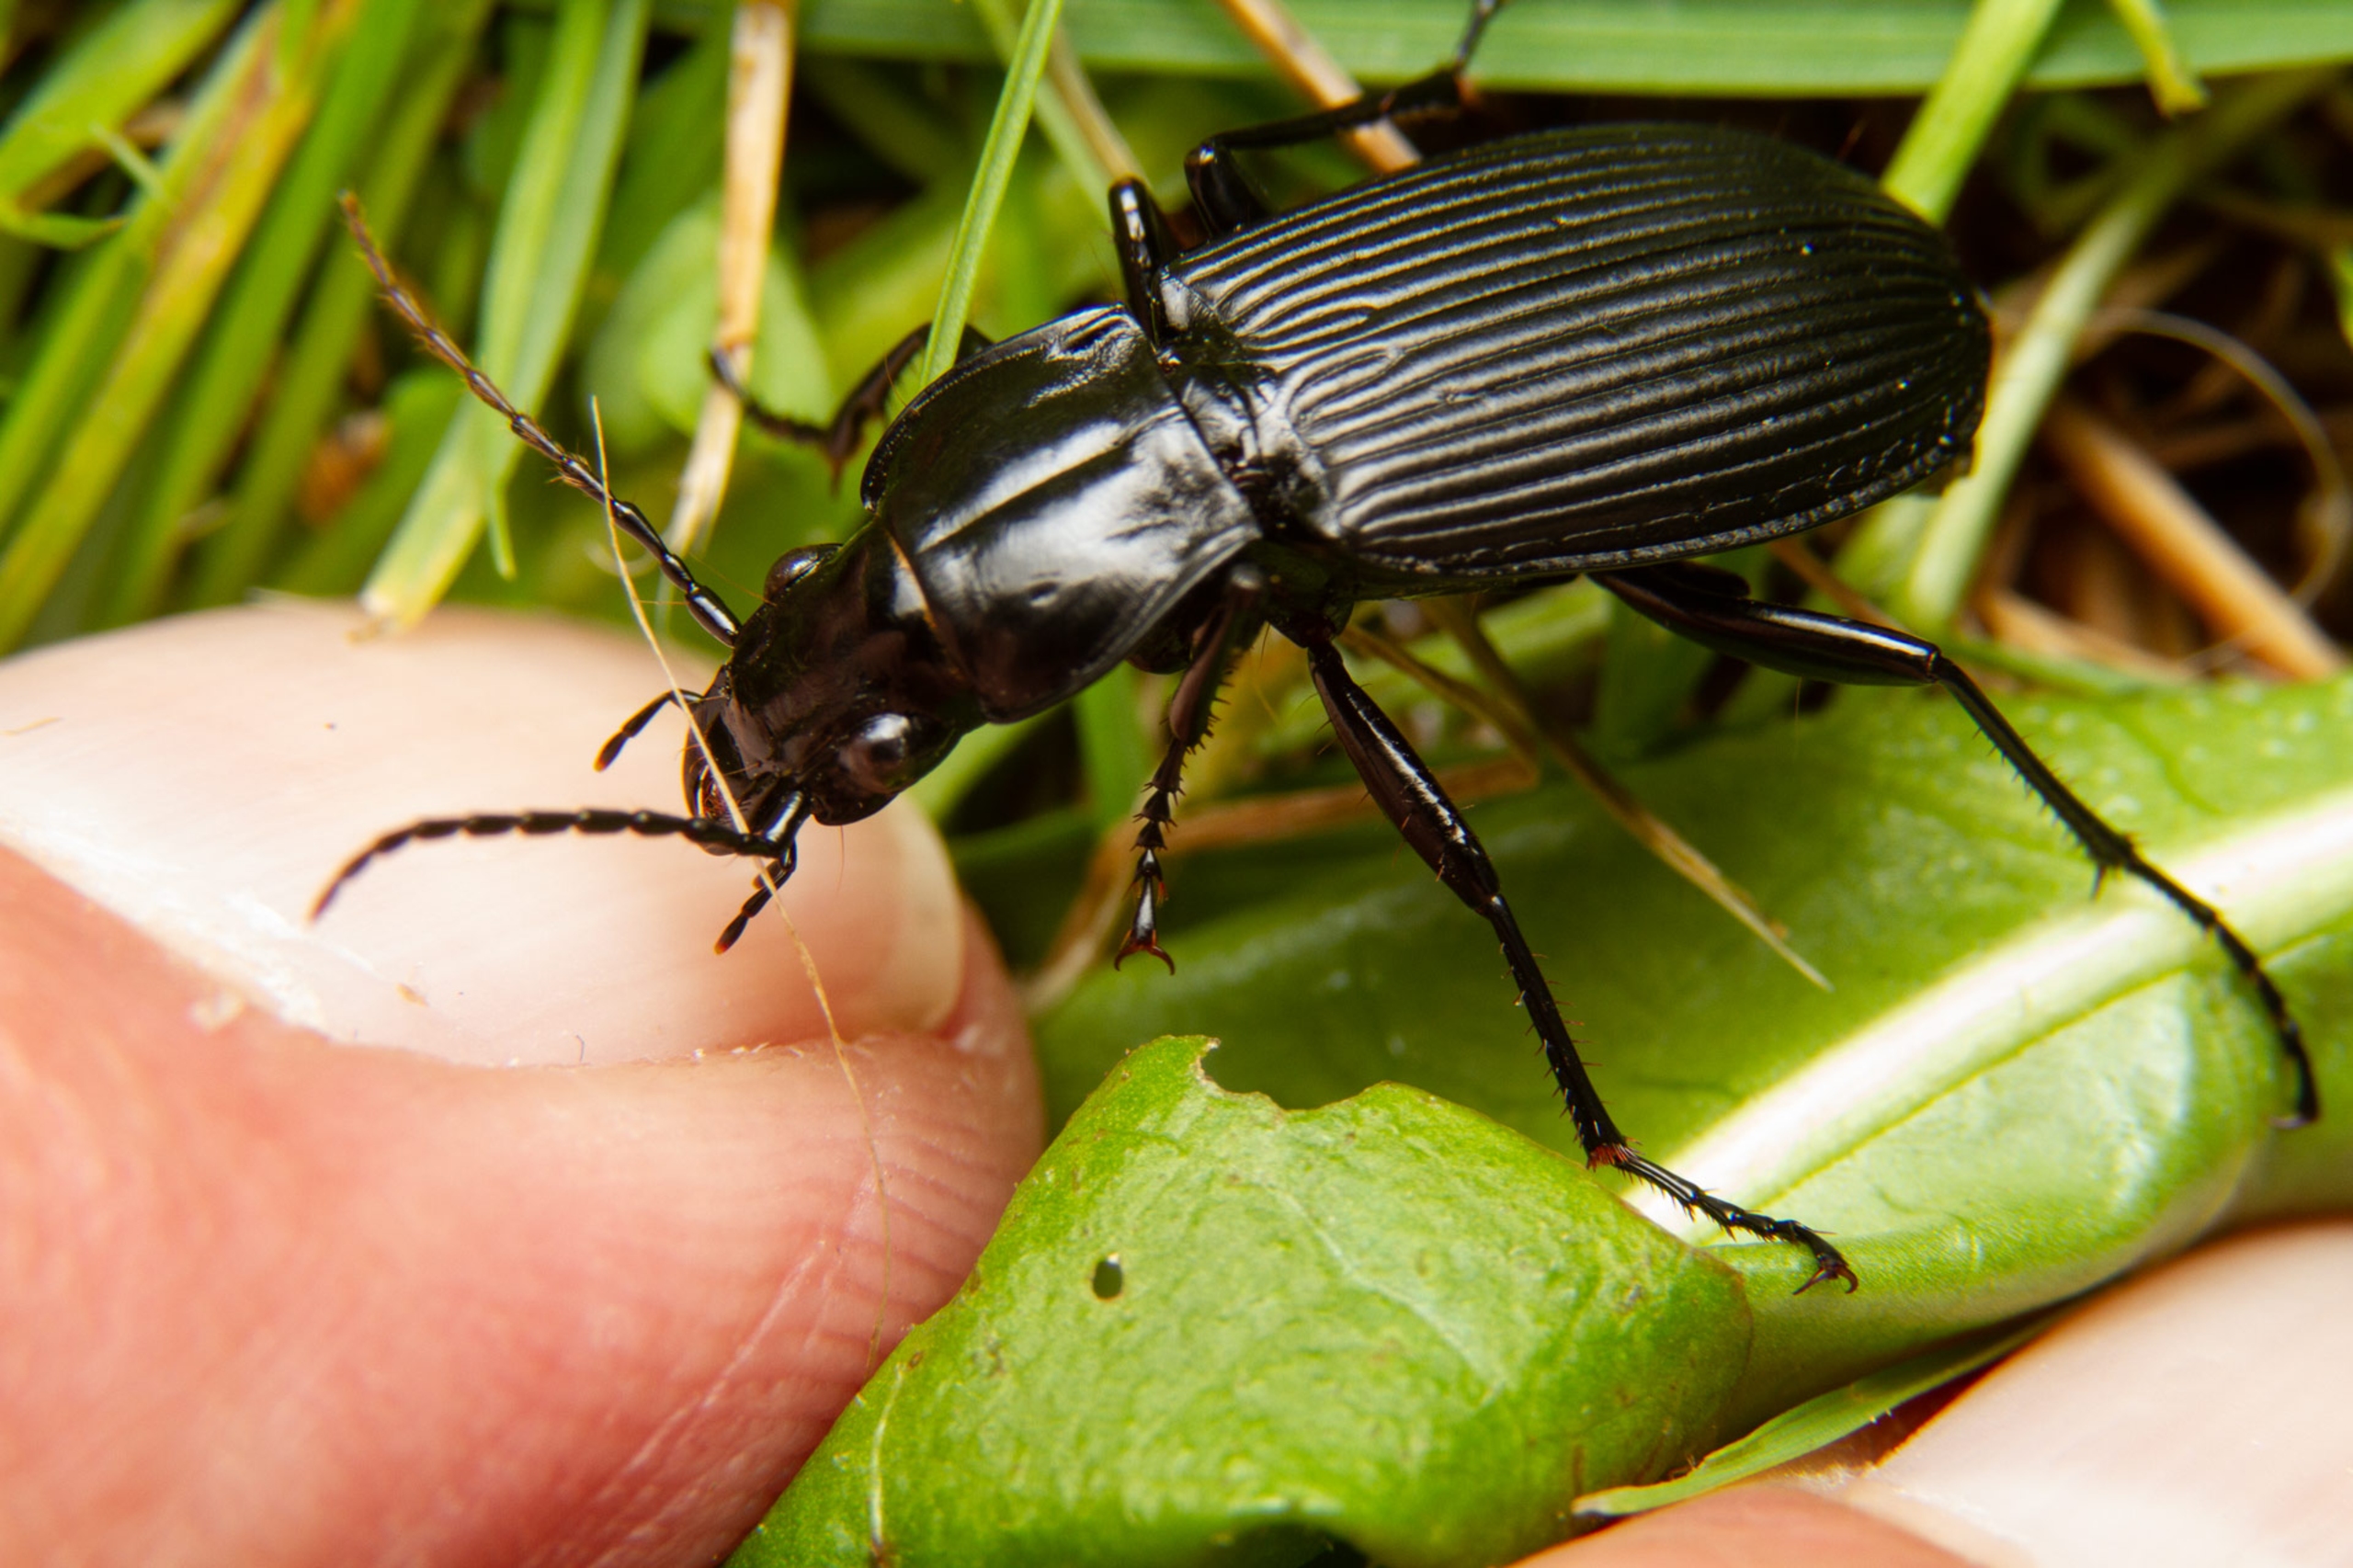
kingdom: Animalia
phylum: Arthropoda
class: Insecta
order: Coleoptera
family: Carabidae
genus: Pterostichus
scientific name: Pterostichus niger
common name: Skovjordløber
